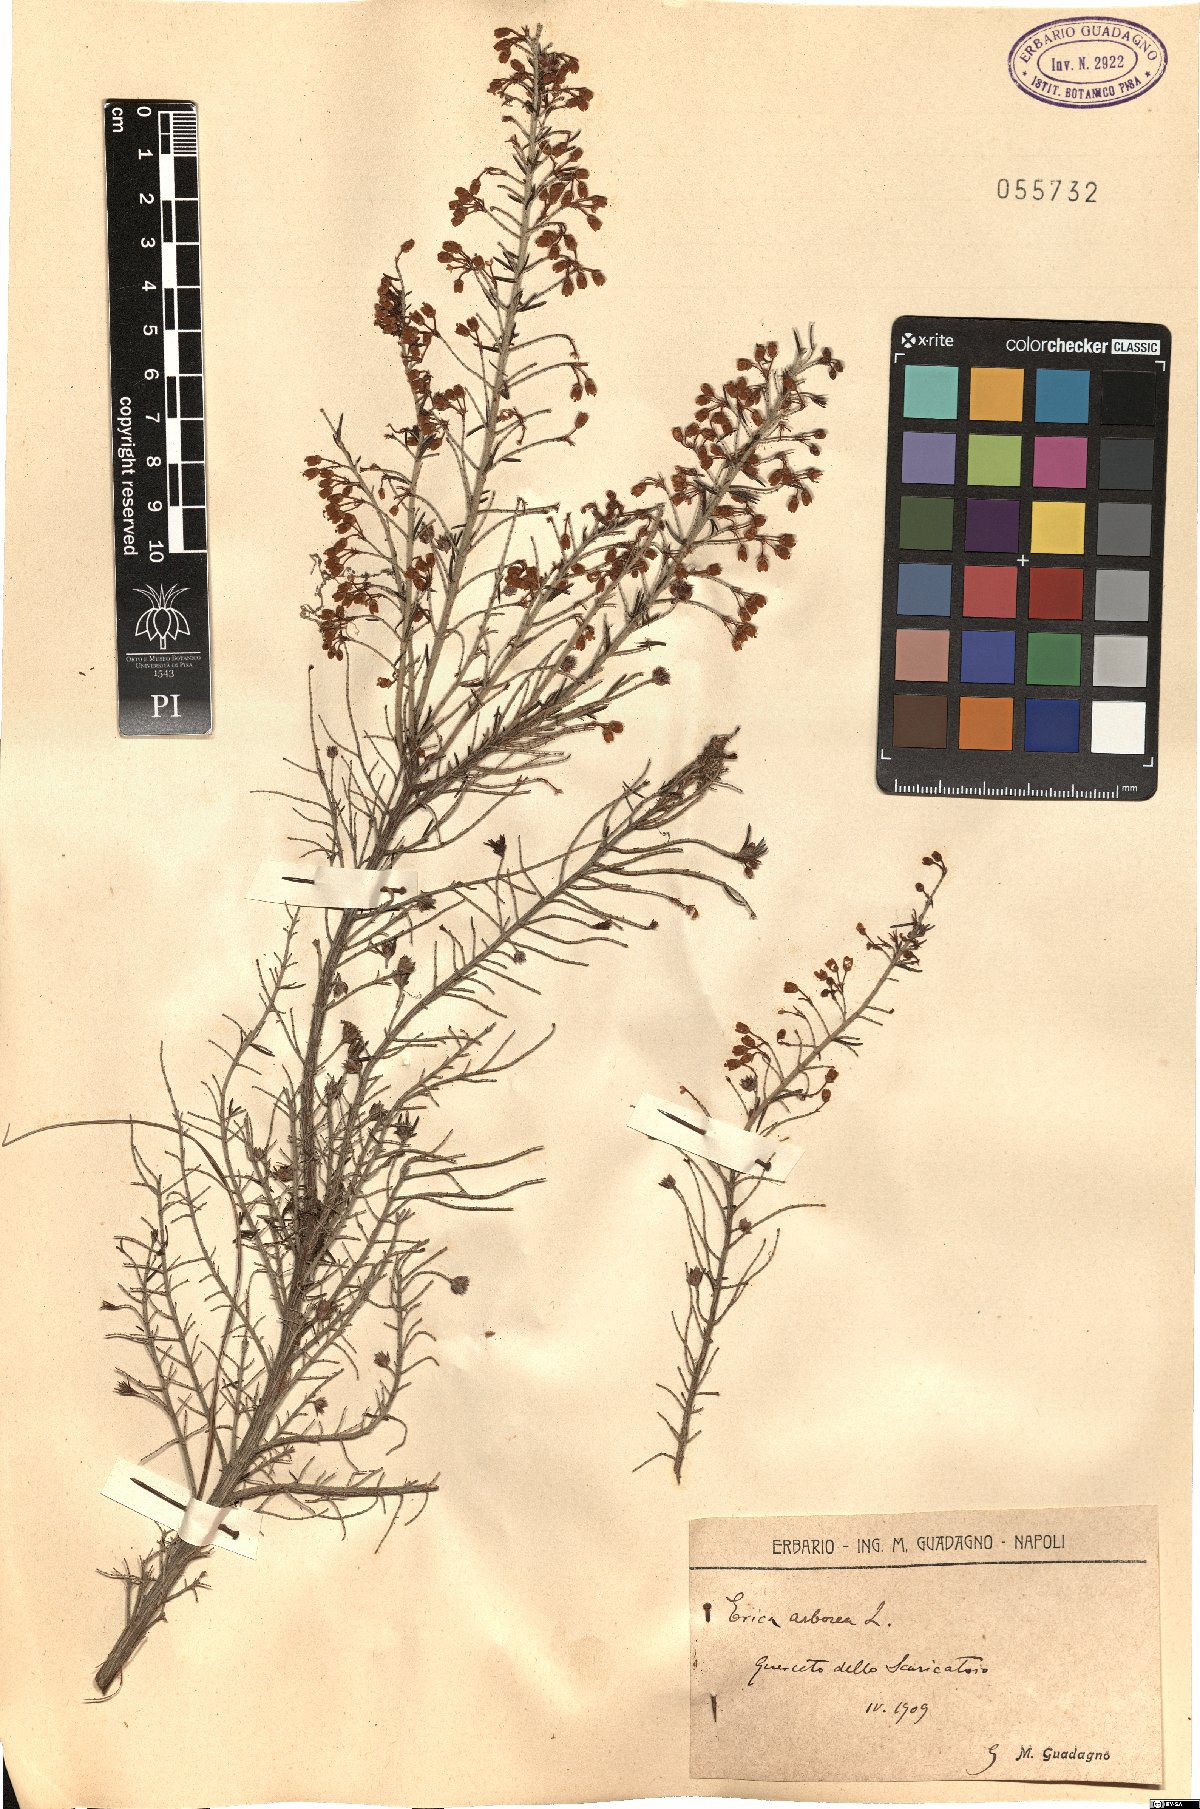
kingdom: Plantae
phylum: Tracheophyta
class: Magnoliopsida
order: Ericales
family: Ericaceae
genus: Erica
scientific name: Erica arborea
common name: Tree heath
